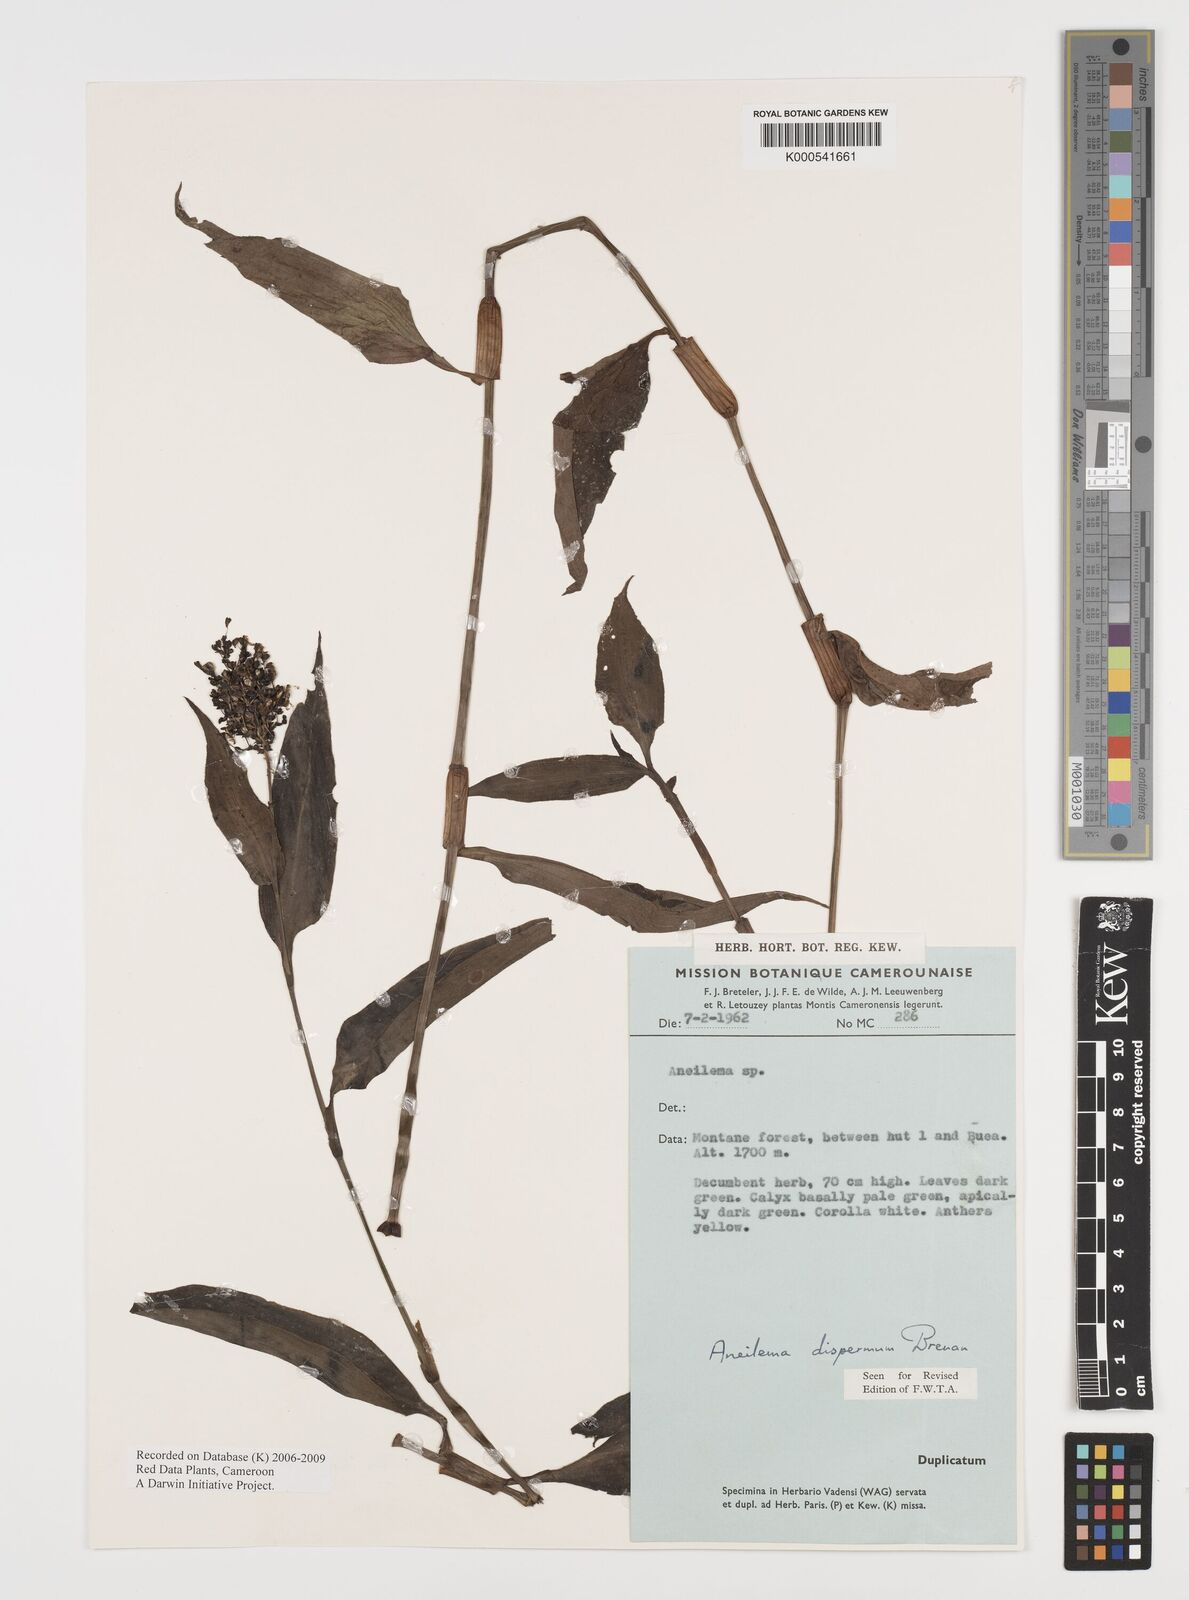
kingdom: Plantae
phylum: Tracheophyta
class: Liliopsida
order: Commelinales
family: Commelinaceae
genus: Aneilema
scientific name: Aneilema dispermum
